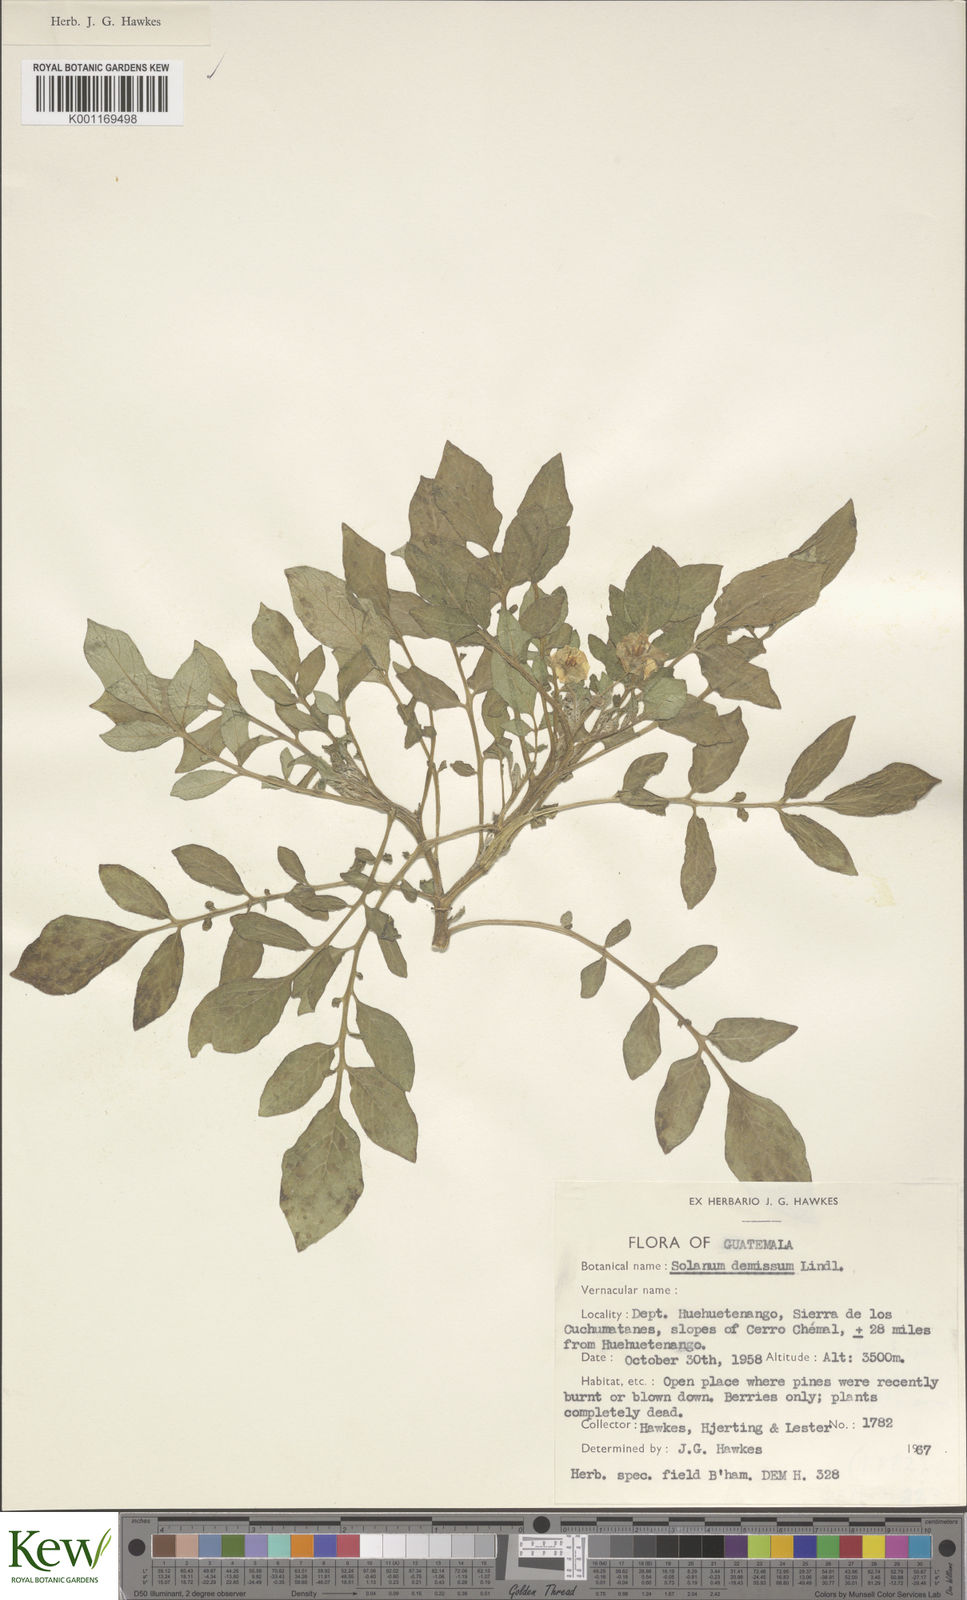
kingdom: Plantae
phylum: Tracheophyta
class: Magnoliopsida
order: Solanales
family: Solanaceae
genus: Solanum
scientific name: Solanum demissum
